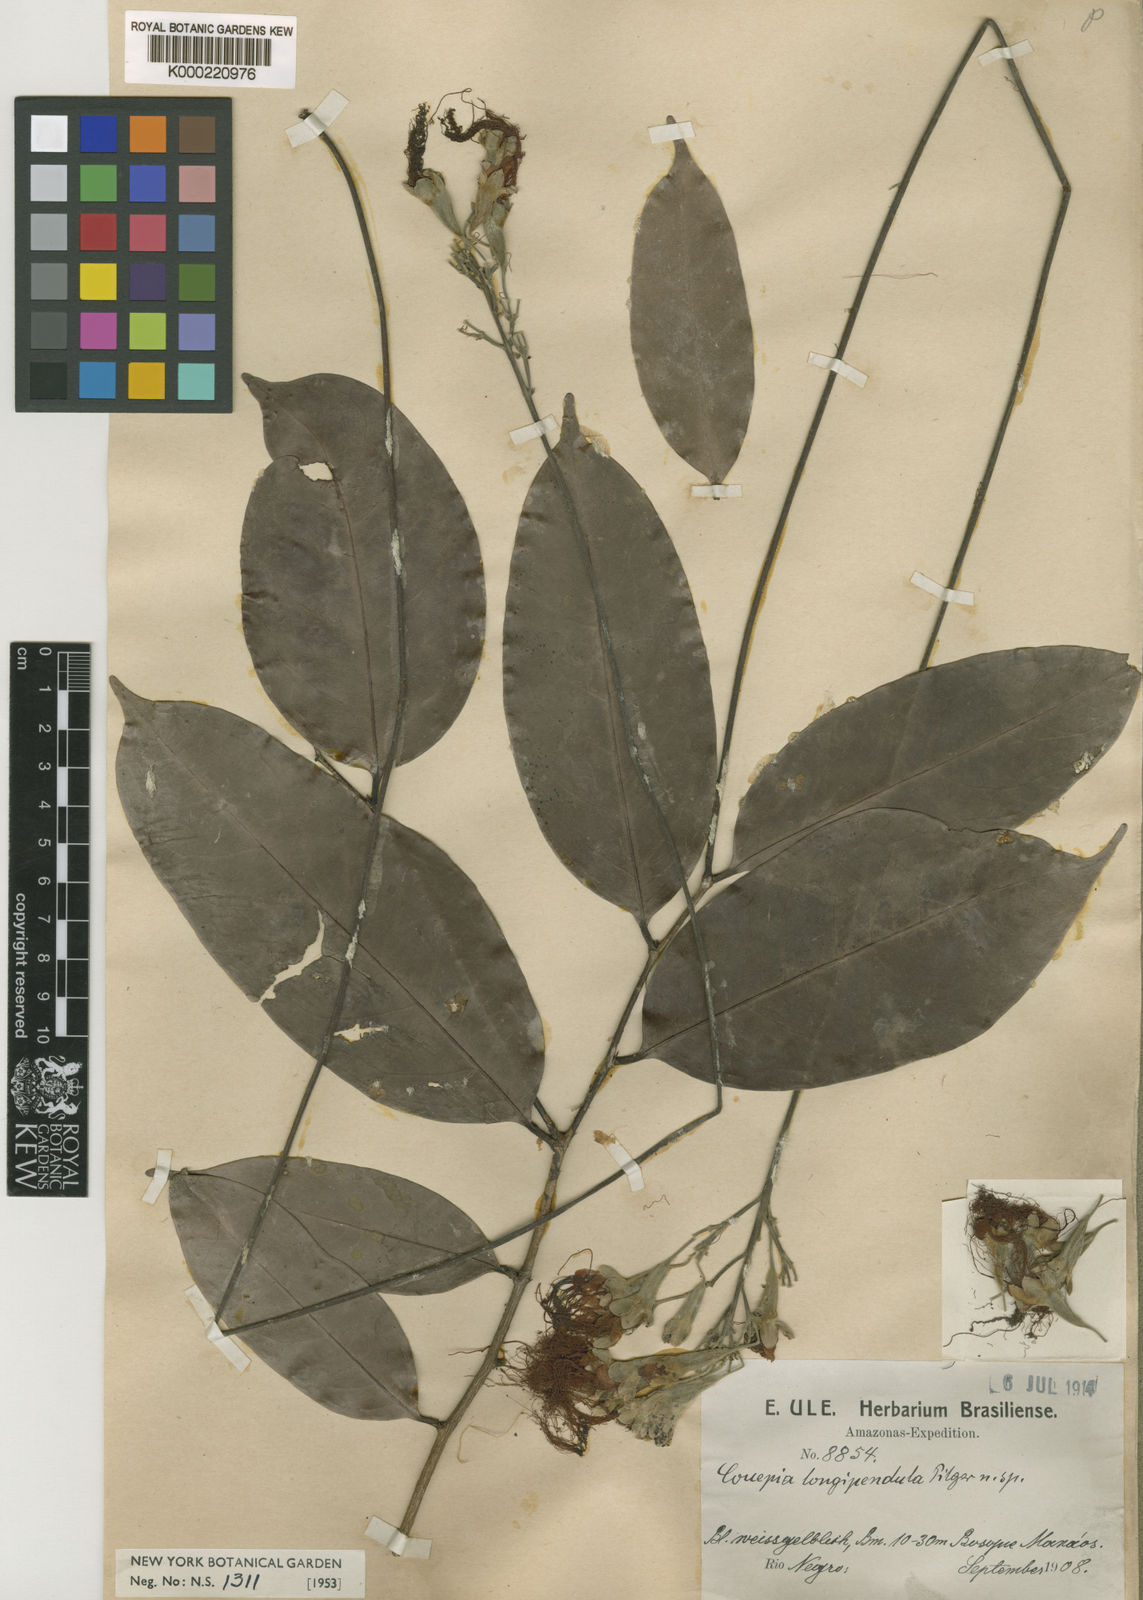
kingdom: Plantae
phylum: Tracheophyta
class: Magnoliopsida
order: Malpighiales
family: Chrysobalanaceae
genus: Acioa
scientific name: Acioa longipendula
